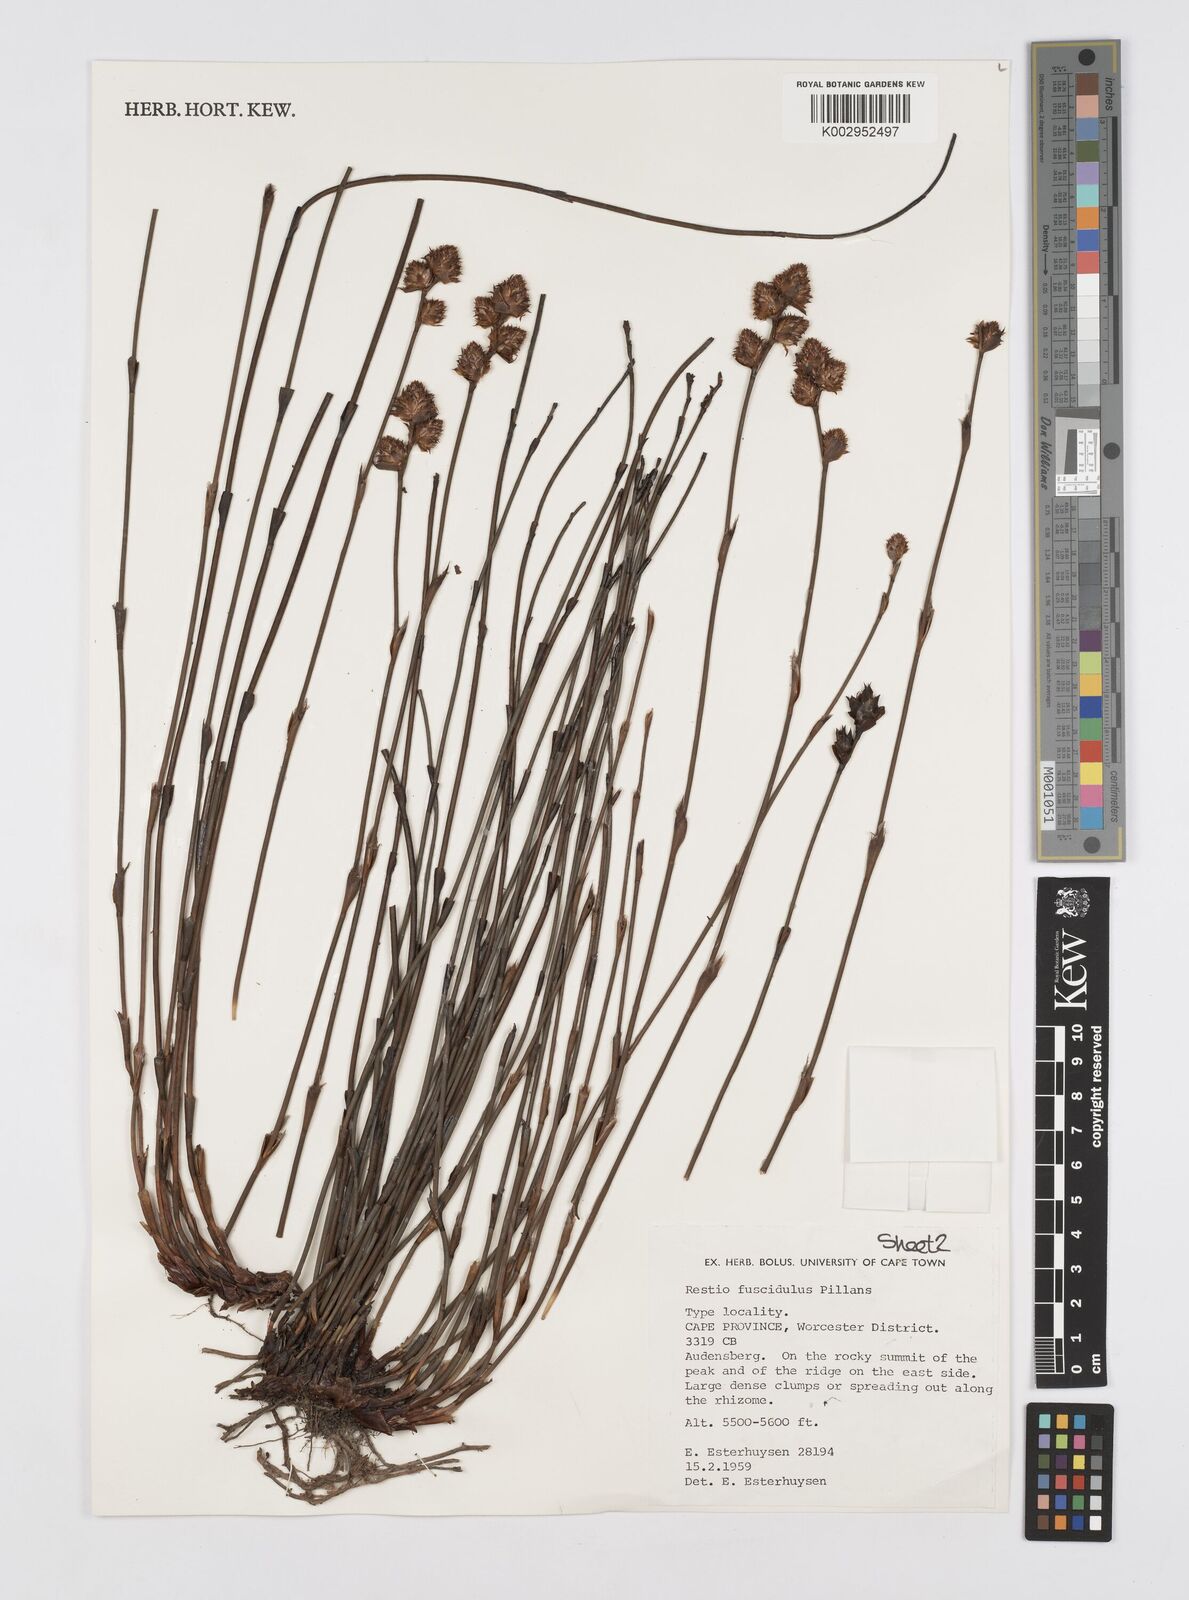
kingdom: Plantae
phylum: Tracheophyta
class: Liliopsida
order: Poales
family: Restionaceae
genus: Restio
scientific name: Restio fuscidulus
